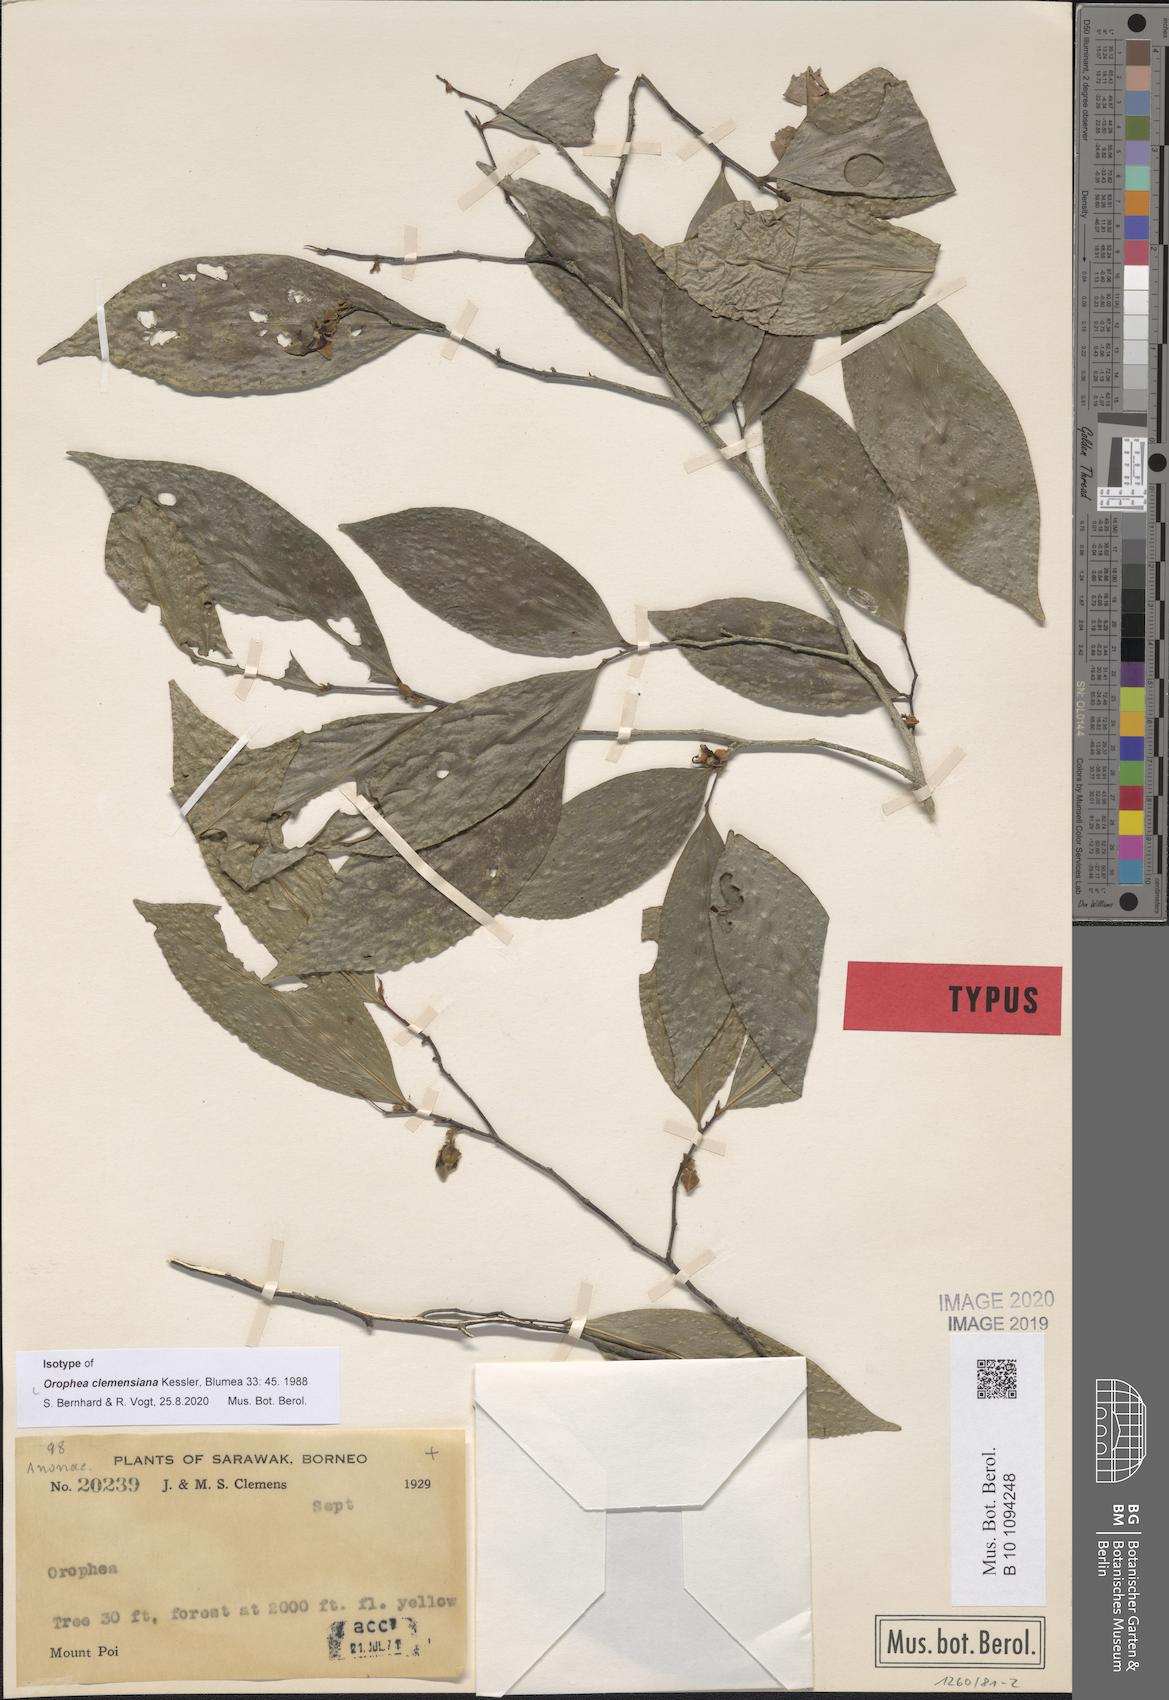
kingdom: Plantae
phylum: Tracheophyta
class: Magnoliopsida
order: Magnoliales
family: Annonaceae
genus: Orophea
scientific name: Orophea clemensiana
